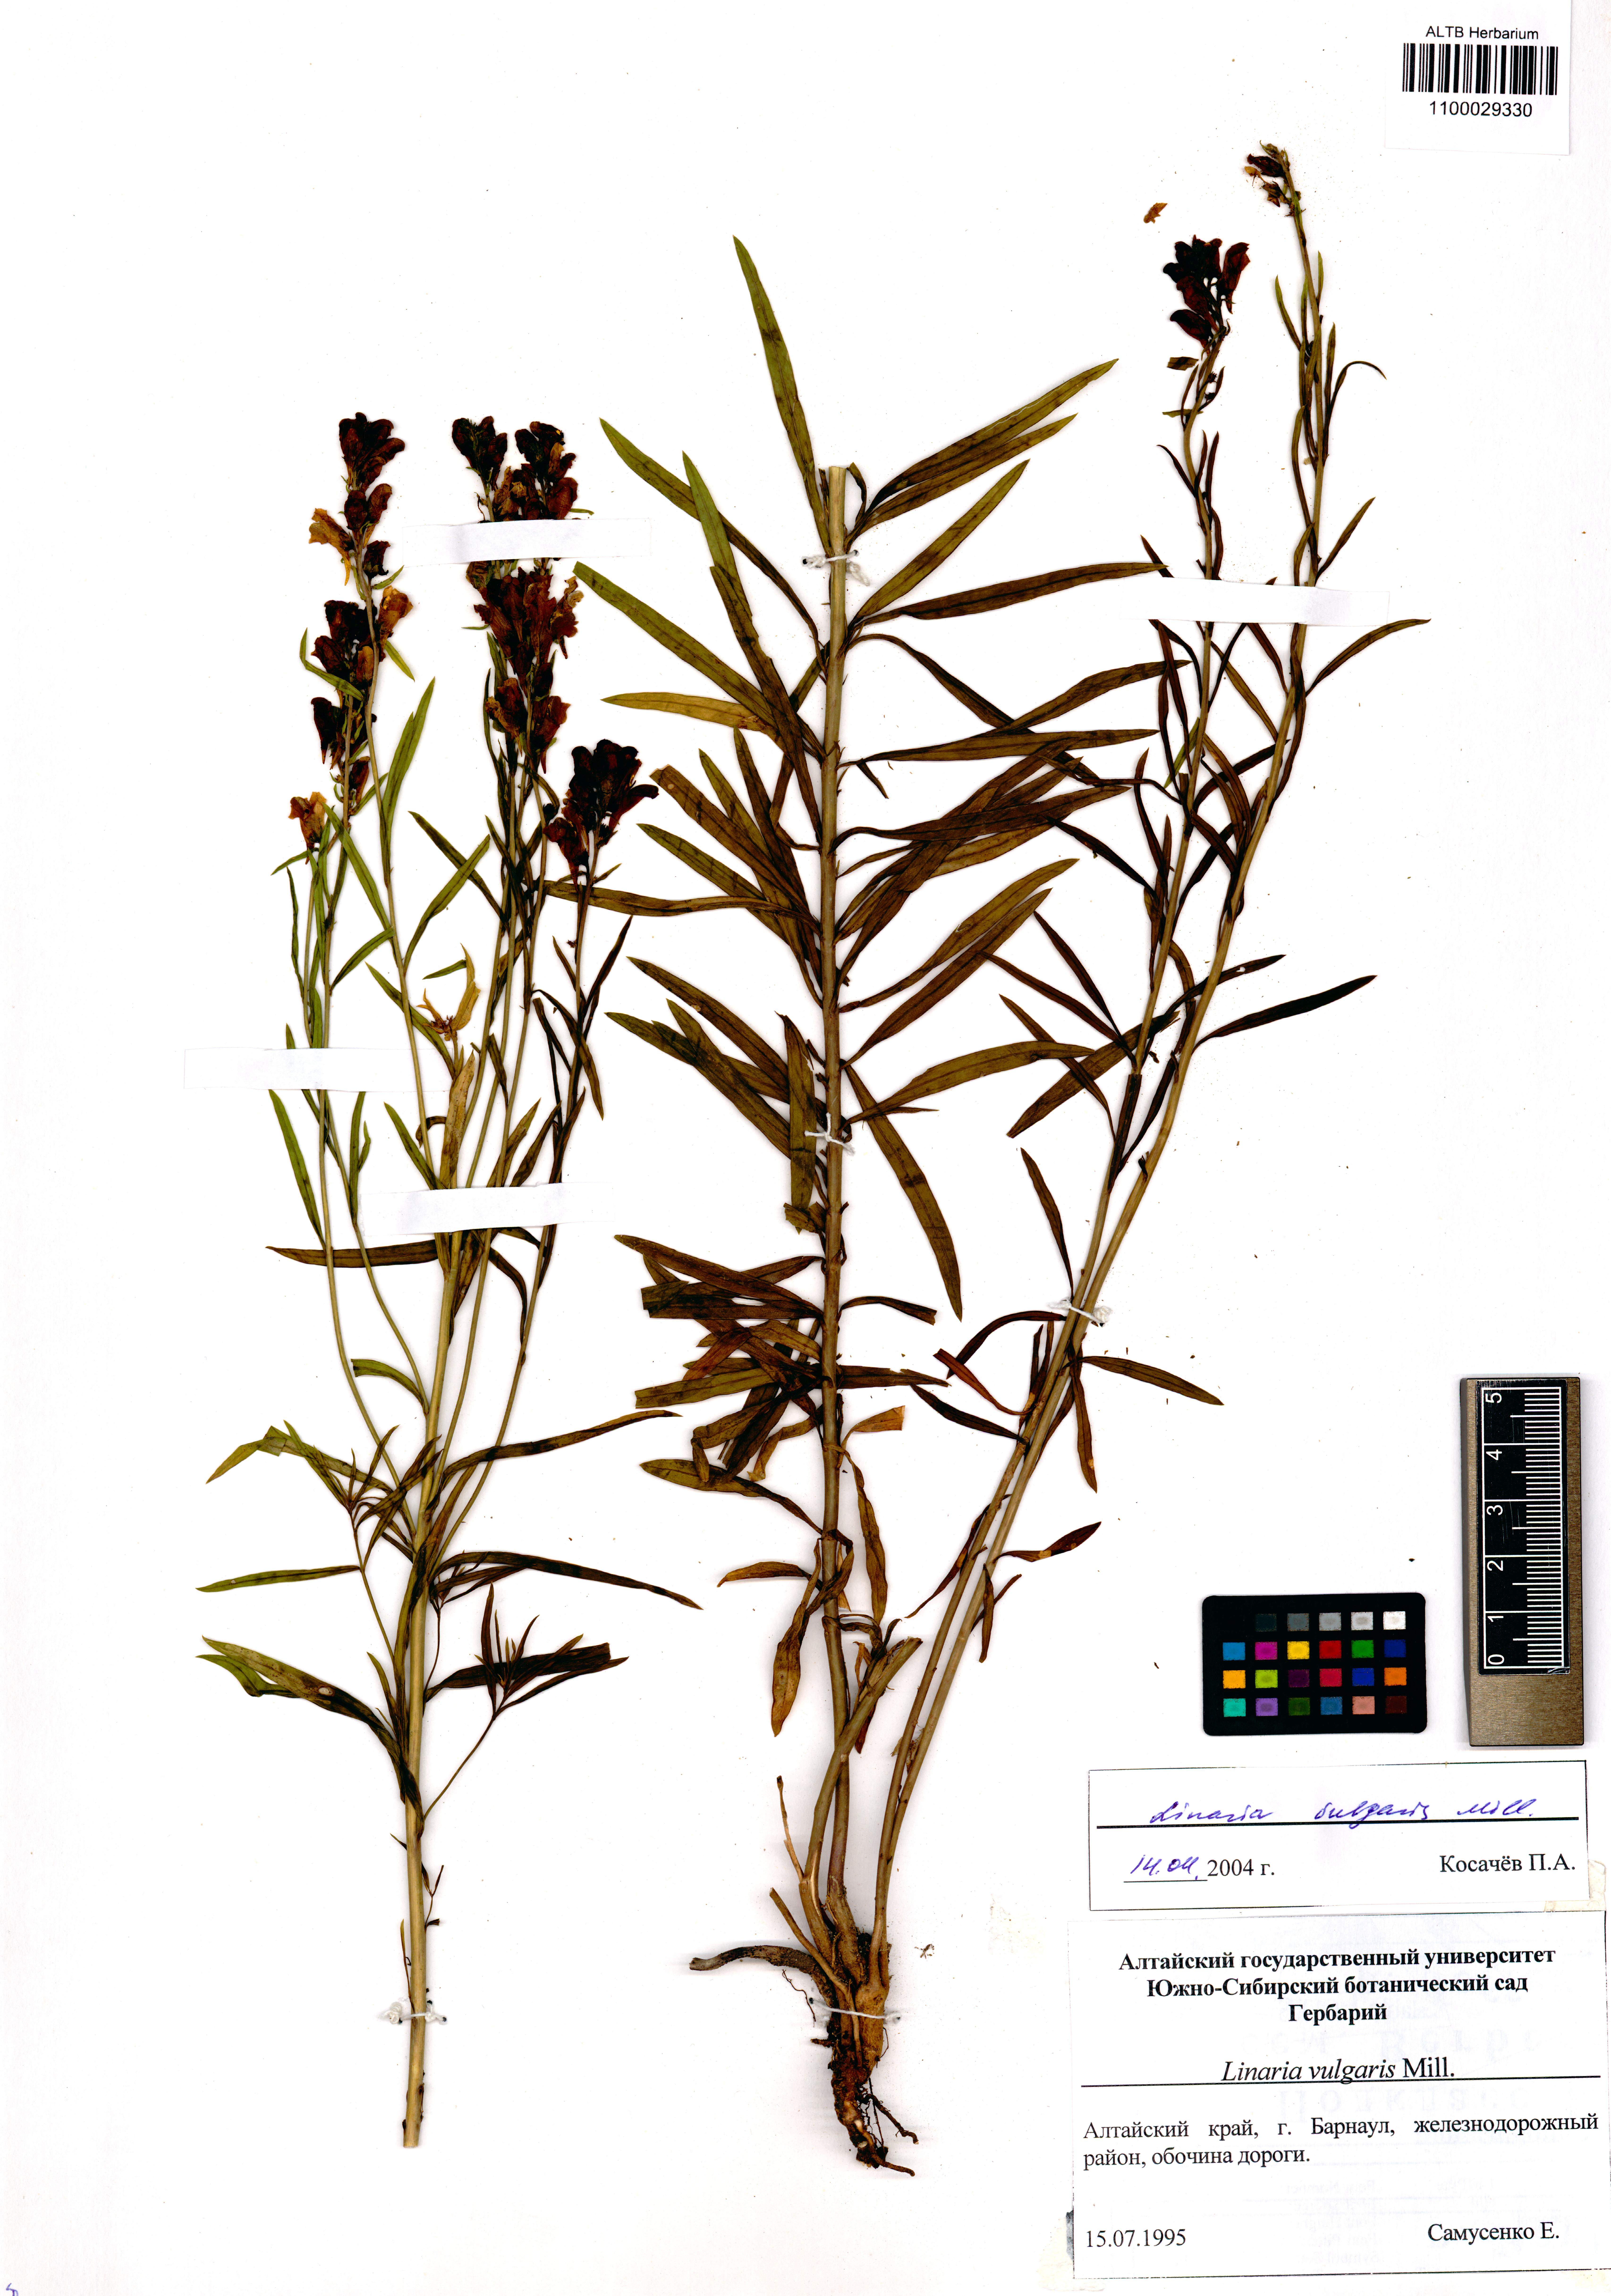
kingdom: Plantae
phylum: Tracheophyta
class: Magnoliopsida
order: Lamiales
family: Plantaginaceae
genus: Linaria
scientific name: Linaria vulgaris
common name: Butter and eggs
